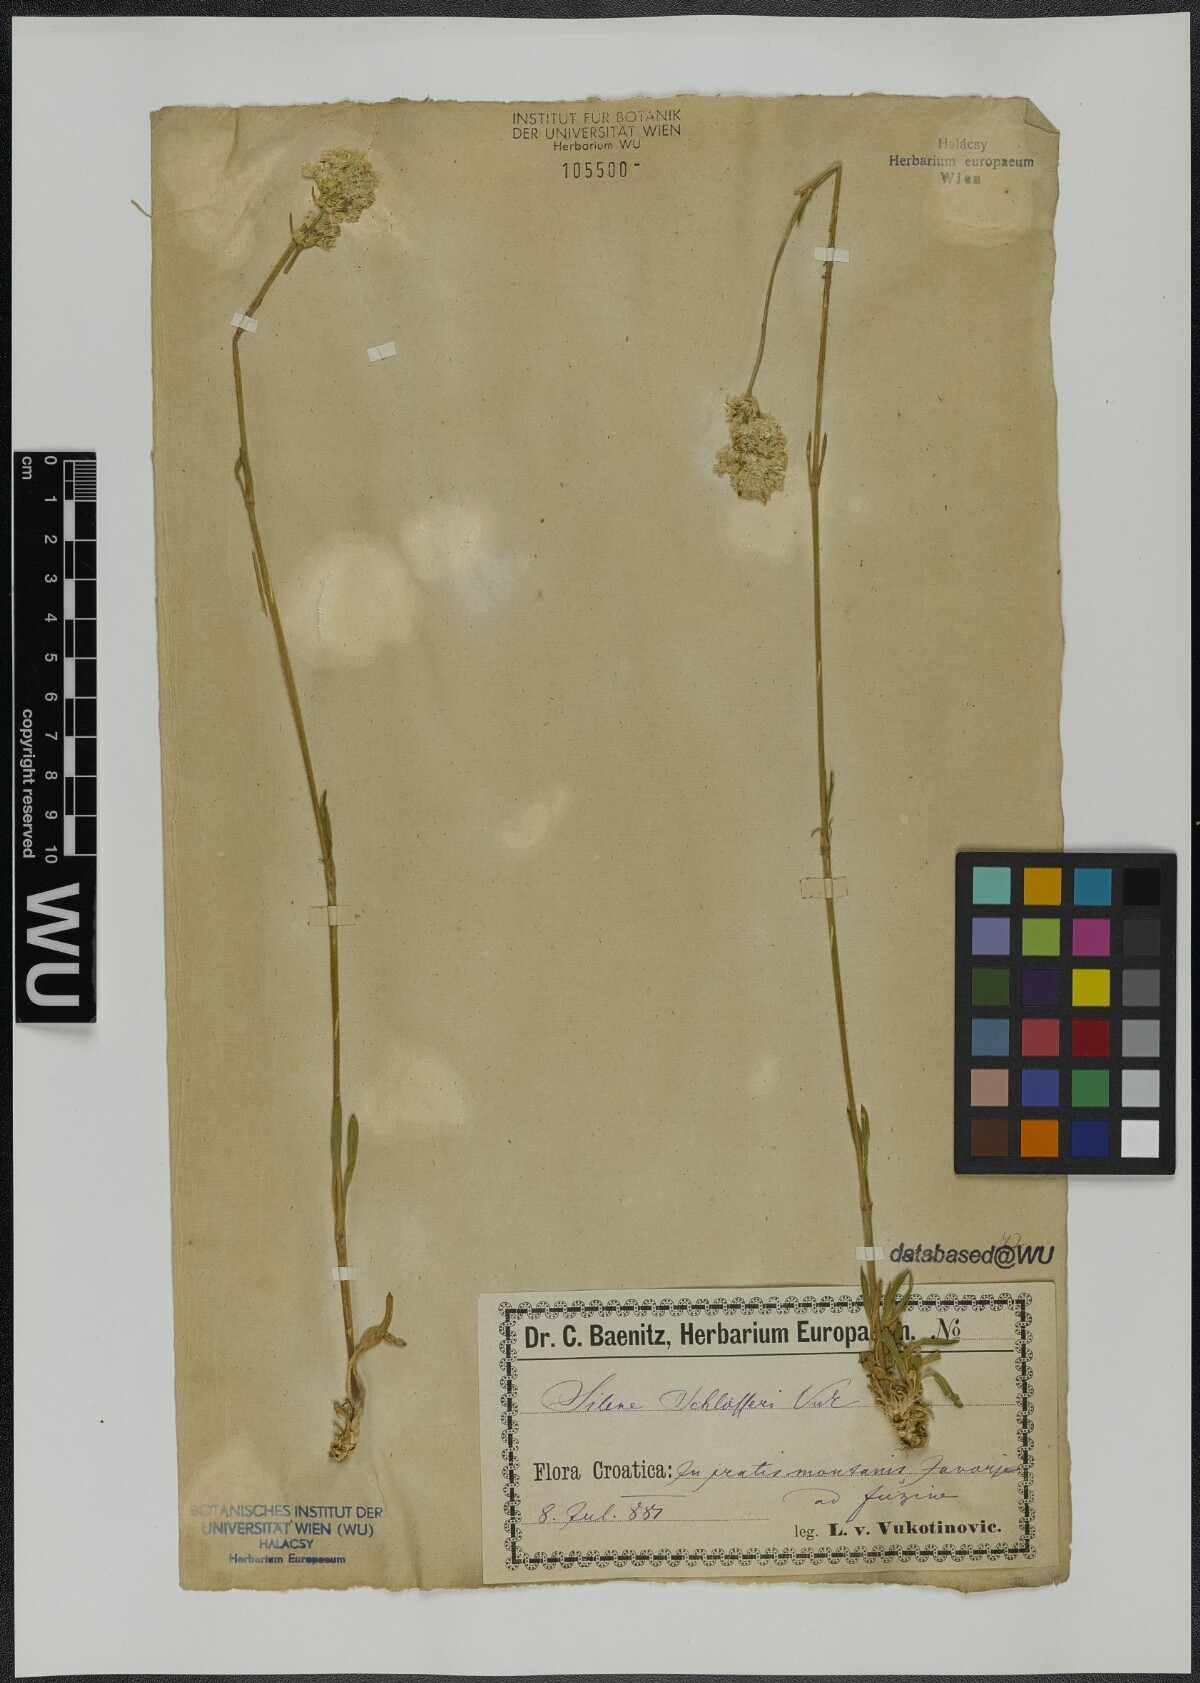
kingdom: Plantae
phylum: Tracheophyta
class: Magnoliopsida
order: Caryophyllales
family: Caryophyllaceae
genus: Silene
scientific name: Silene sendtneri
